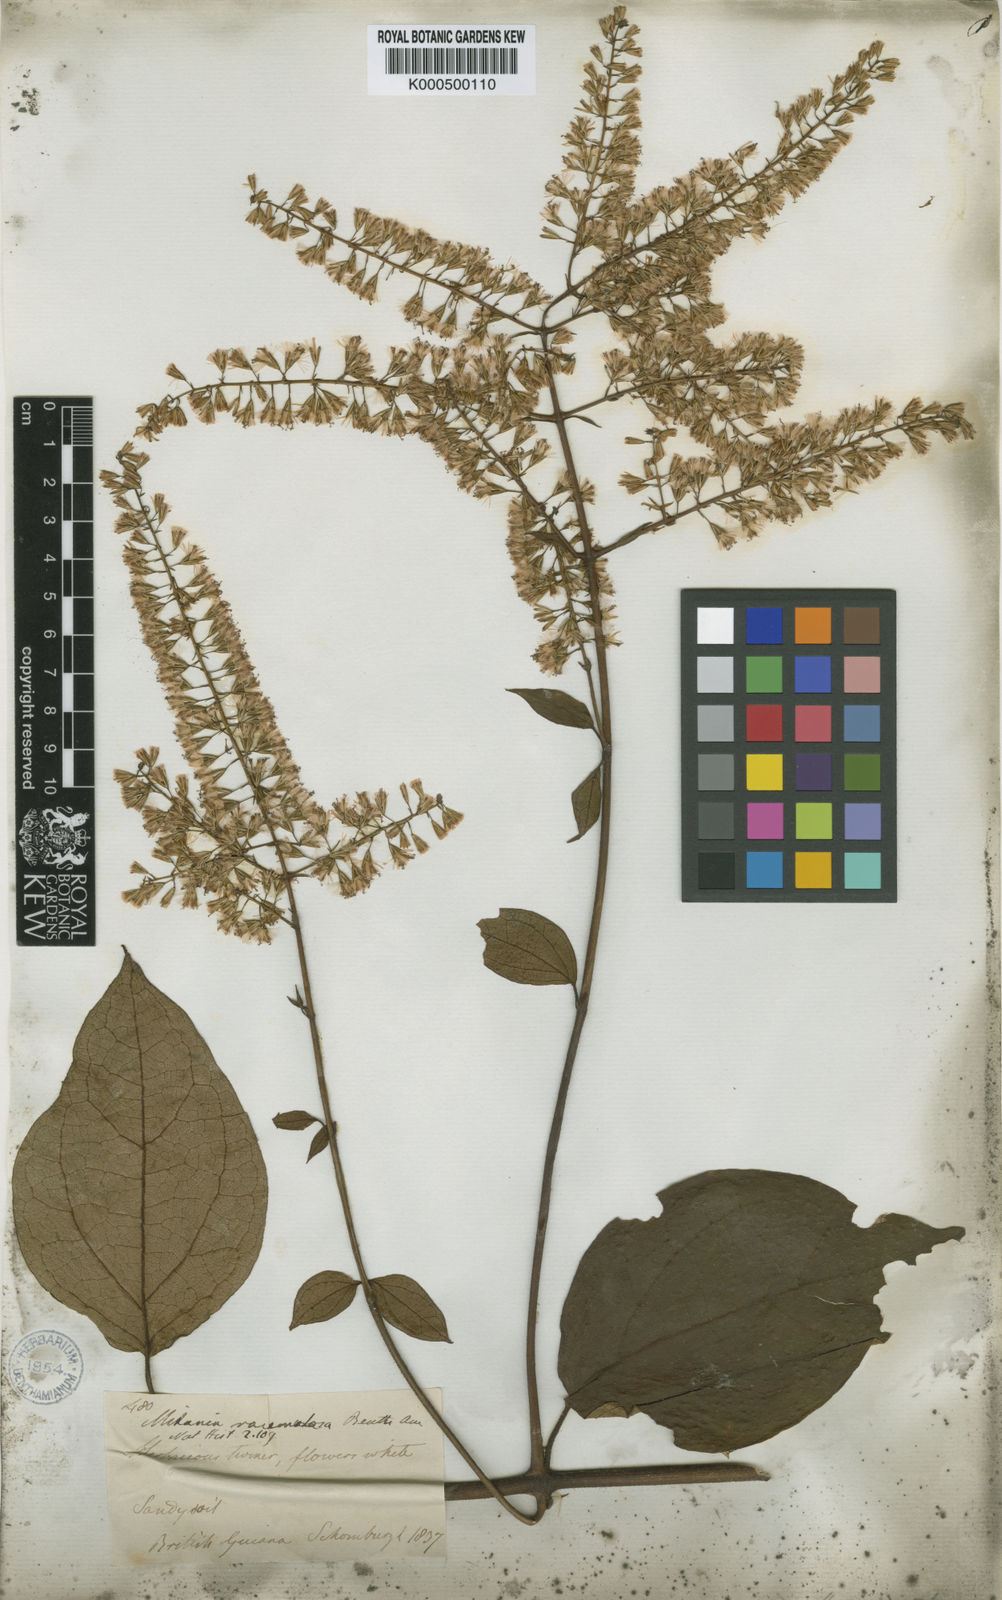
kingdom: Plantae
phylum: Tracheophyta
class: Magnoliopsida
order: Asterales
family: Asteraceae
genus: Mikania
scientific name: Mikania psilostachya
